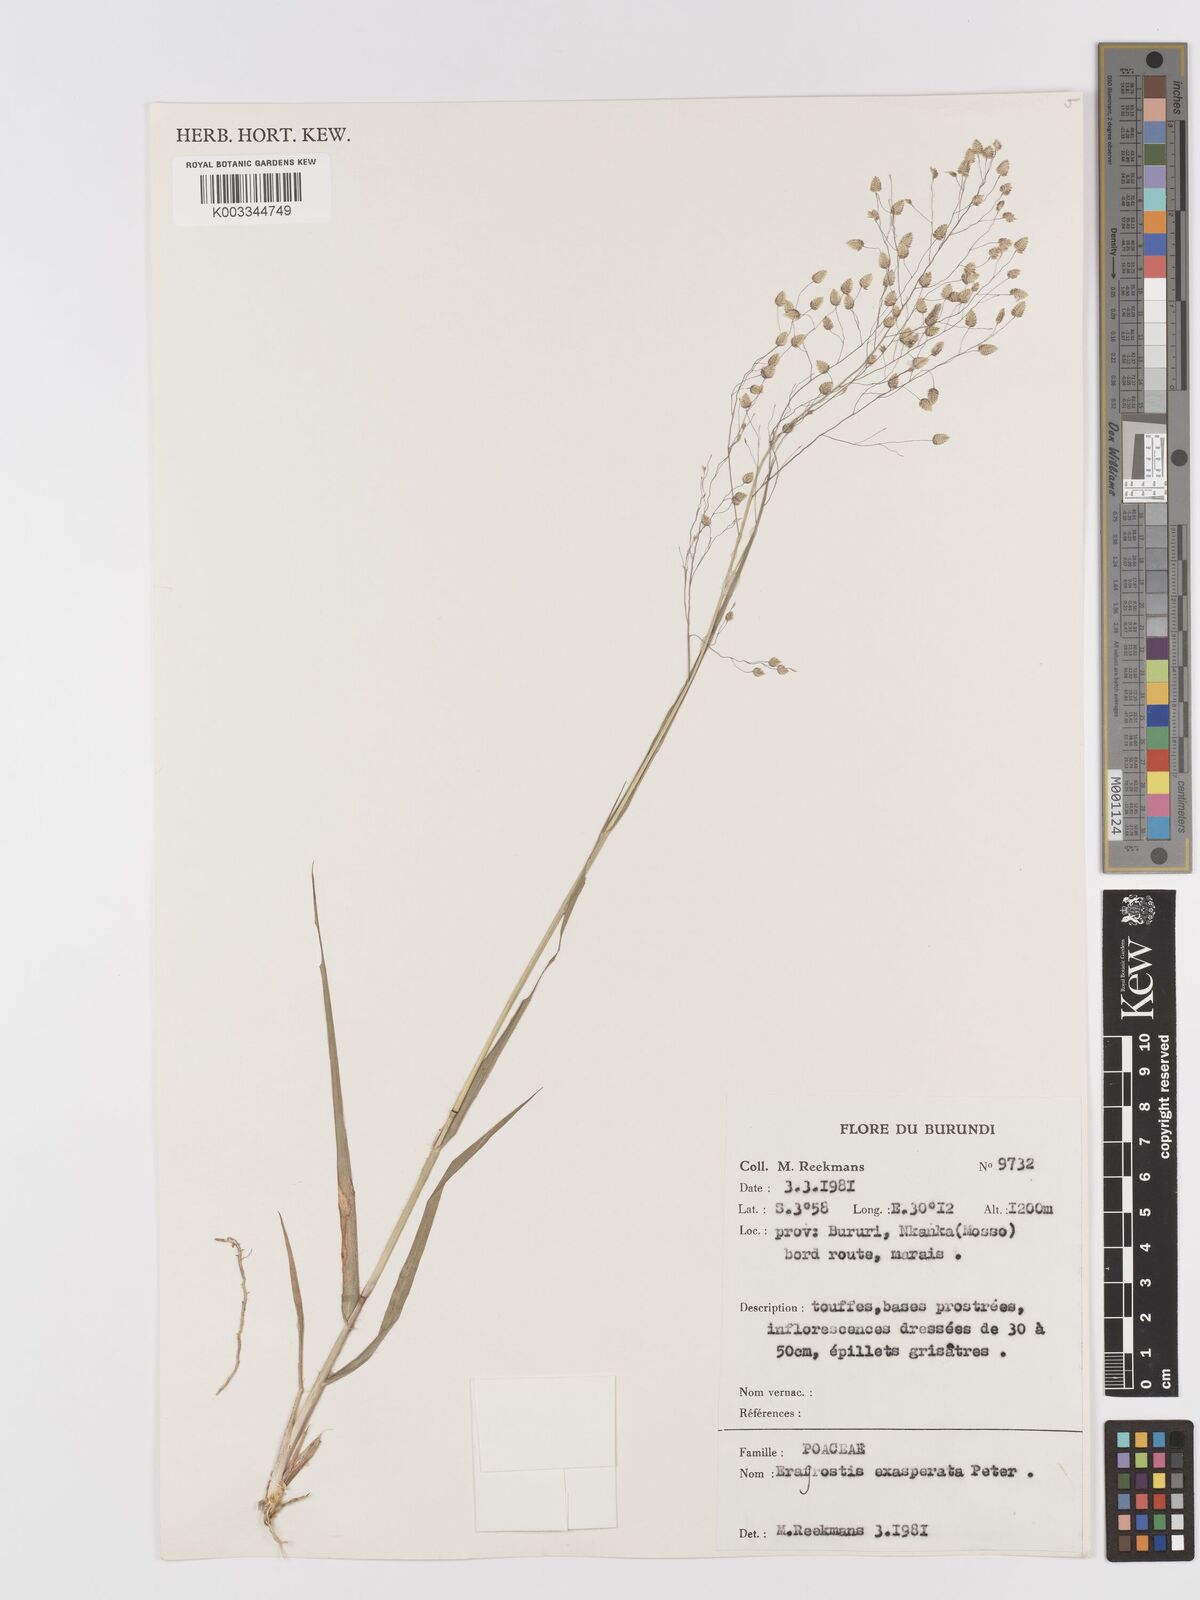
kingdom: Plantae
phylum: Tracheophyta
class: Liliopsida
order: Poales
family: Poaceae
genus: Eragrostis
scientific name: Eragrostis exasperata
